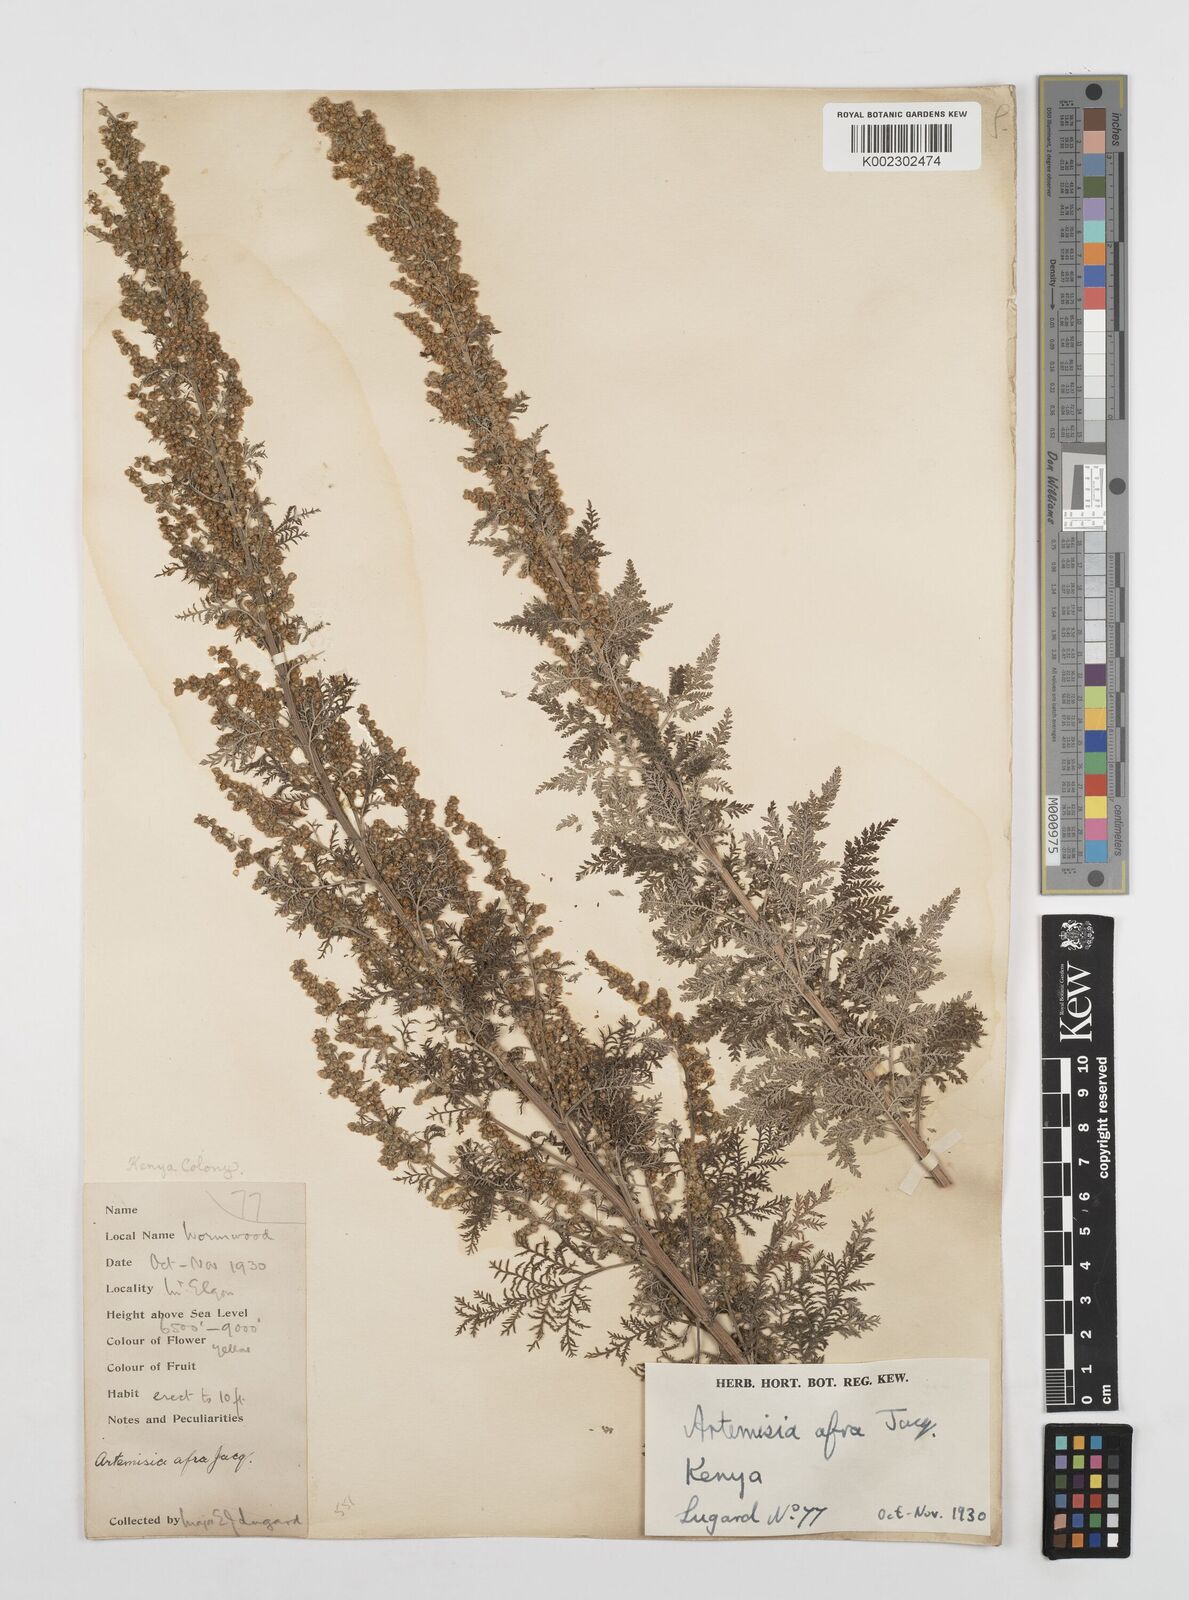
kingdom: Plantae
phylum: Tracheophyta
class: Magnoliopsida
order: Asterales
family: Asteraceae
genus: Artemisia
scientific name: Artemisia afra
